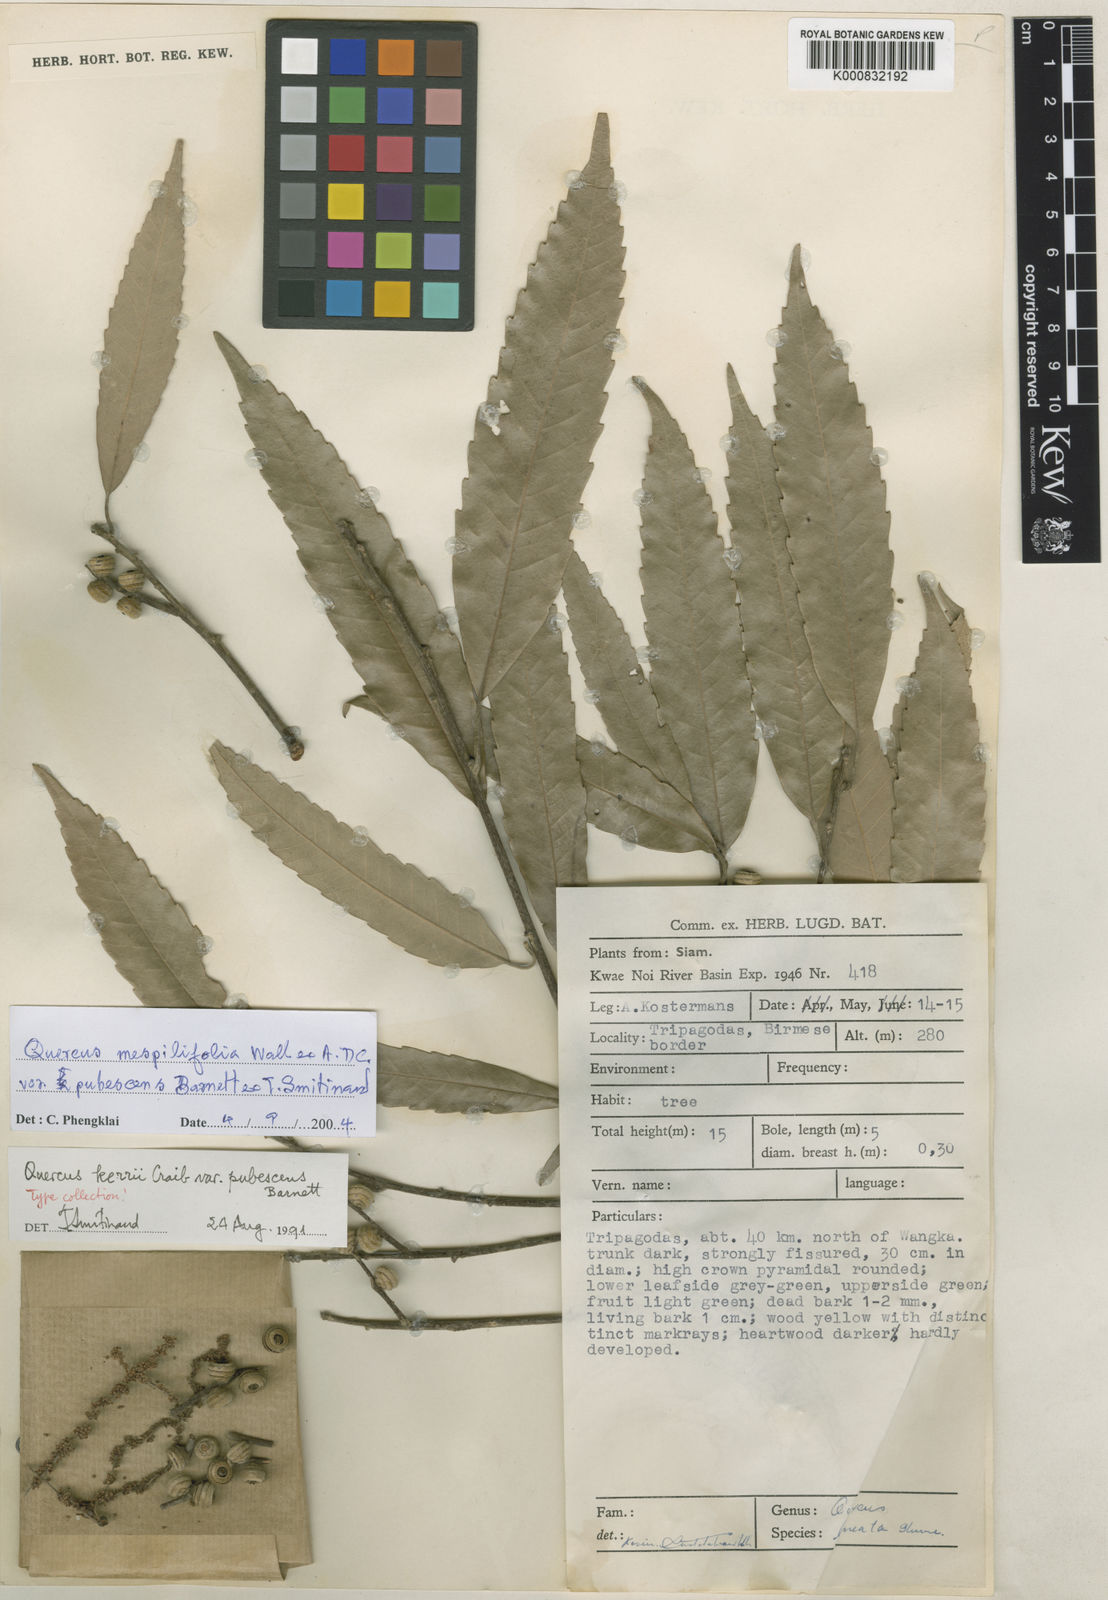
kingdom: Plantae
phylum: Tracheophyta
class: Magnoliopsida
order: Fagales
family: Fagaceae
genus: Quercus
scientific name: Quercus mespilifolia
